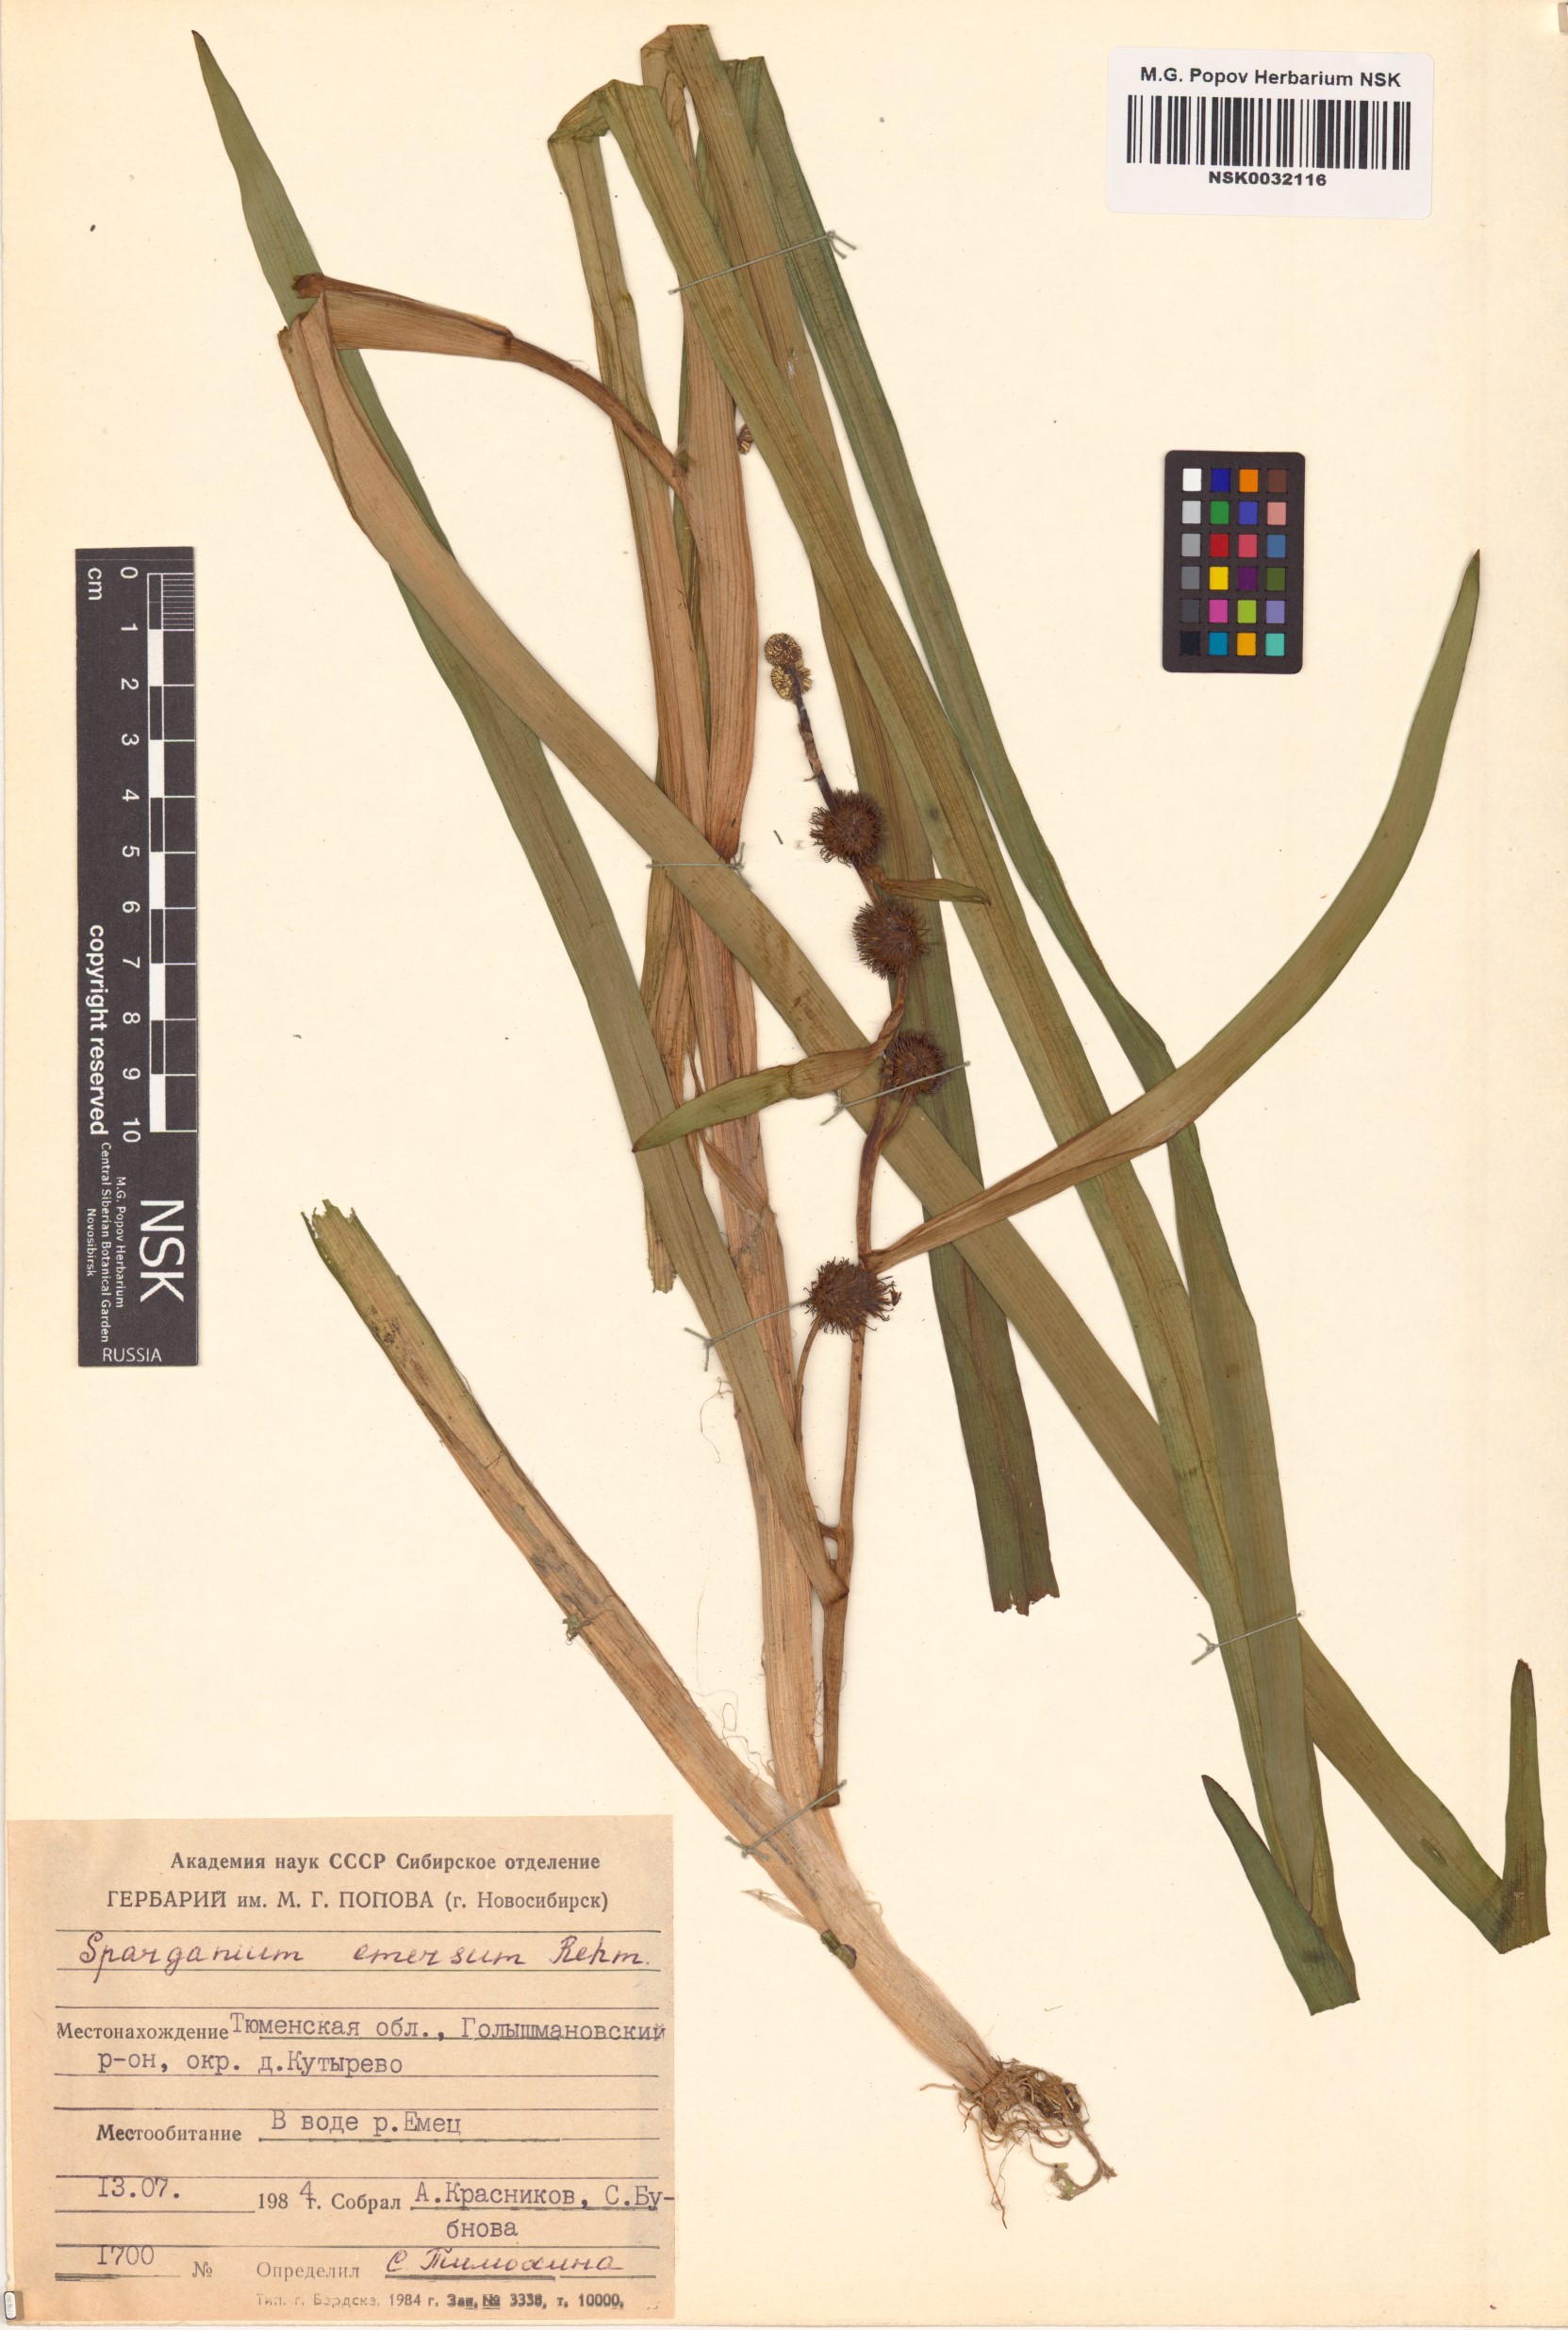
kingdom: Plantae
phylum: Tracheophyta
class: Liliopsida
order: Poales
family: Typhaceae
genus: Sparganium
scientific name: Sparganium emersum
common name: Unbranched bur-reed
